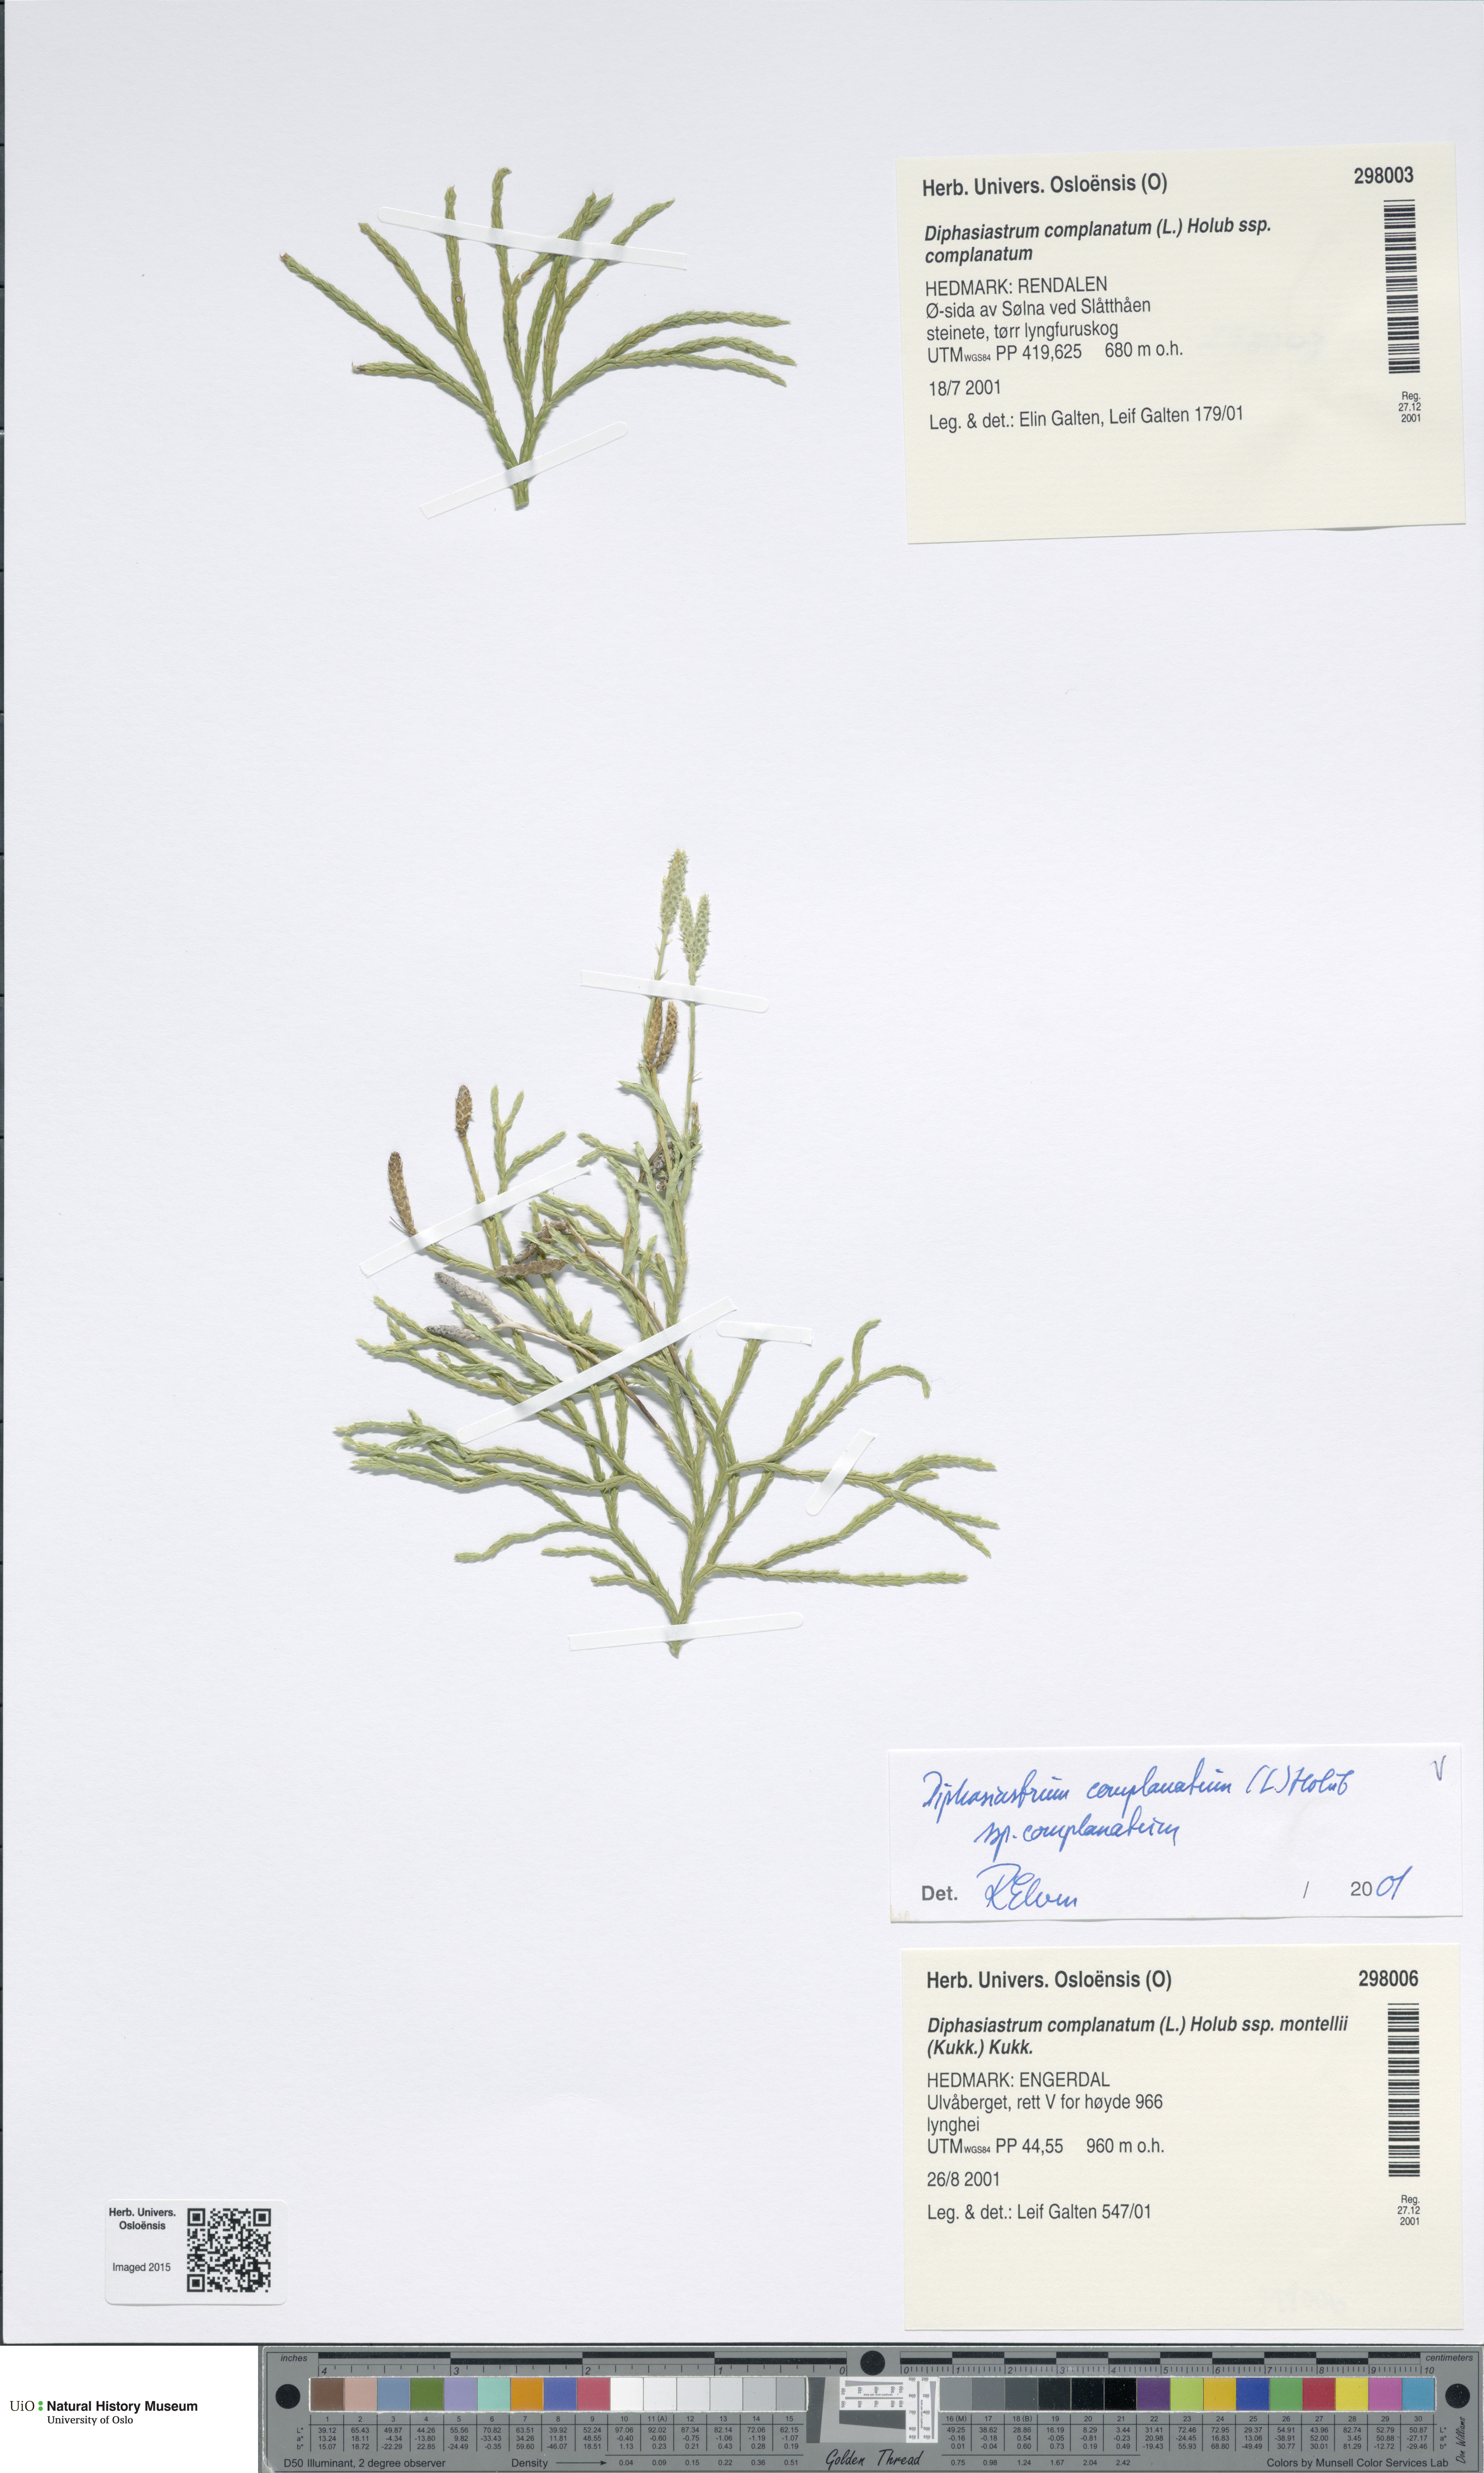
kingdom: Plantae
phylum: Tracheophyta
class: Lycopodiopsida
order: Lycopodiales
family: Lycopodiaceae
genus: Diphasiastrum
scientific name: Diphasiastrum complanatum
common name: Northern running-pine
